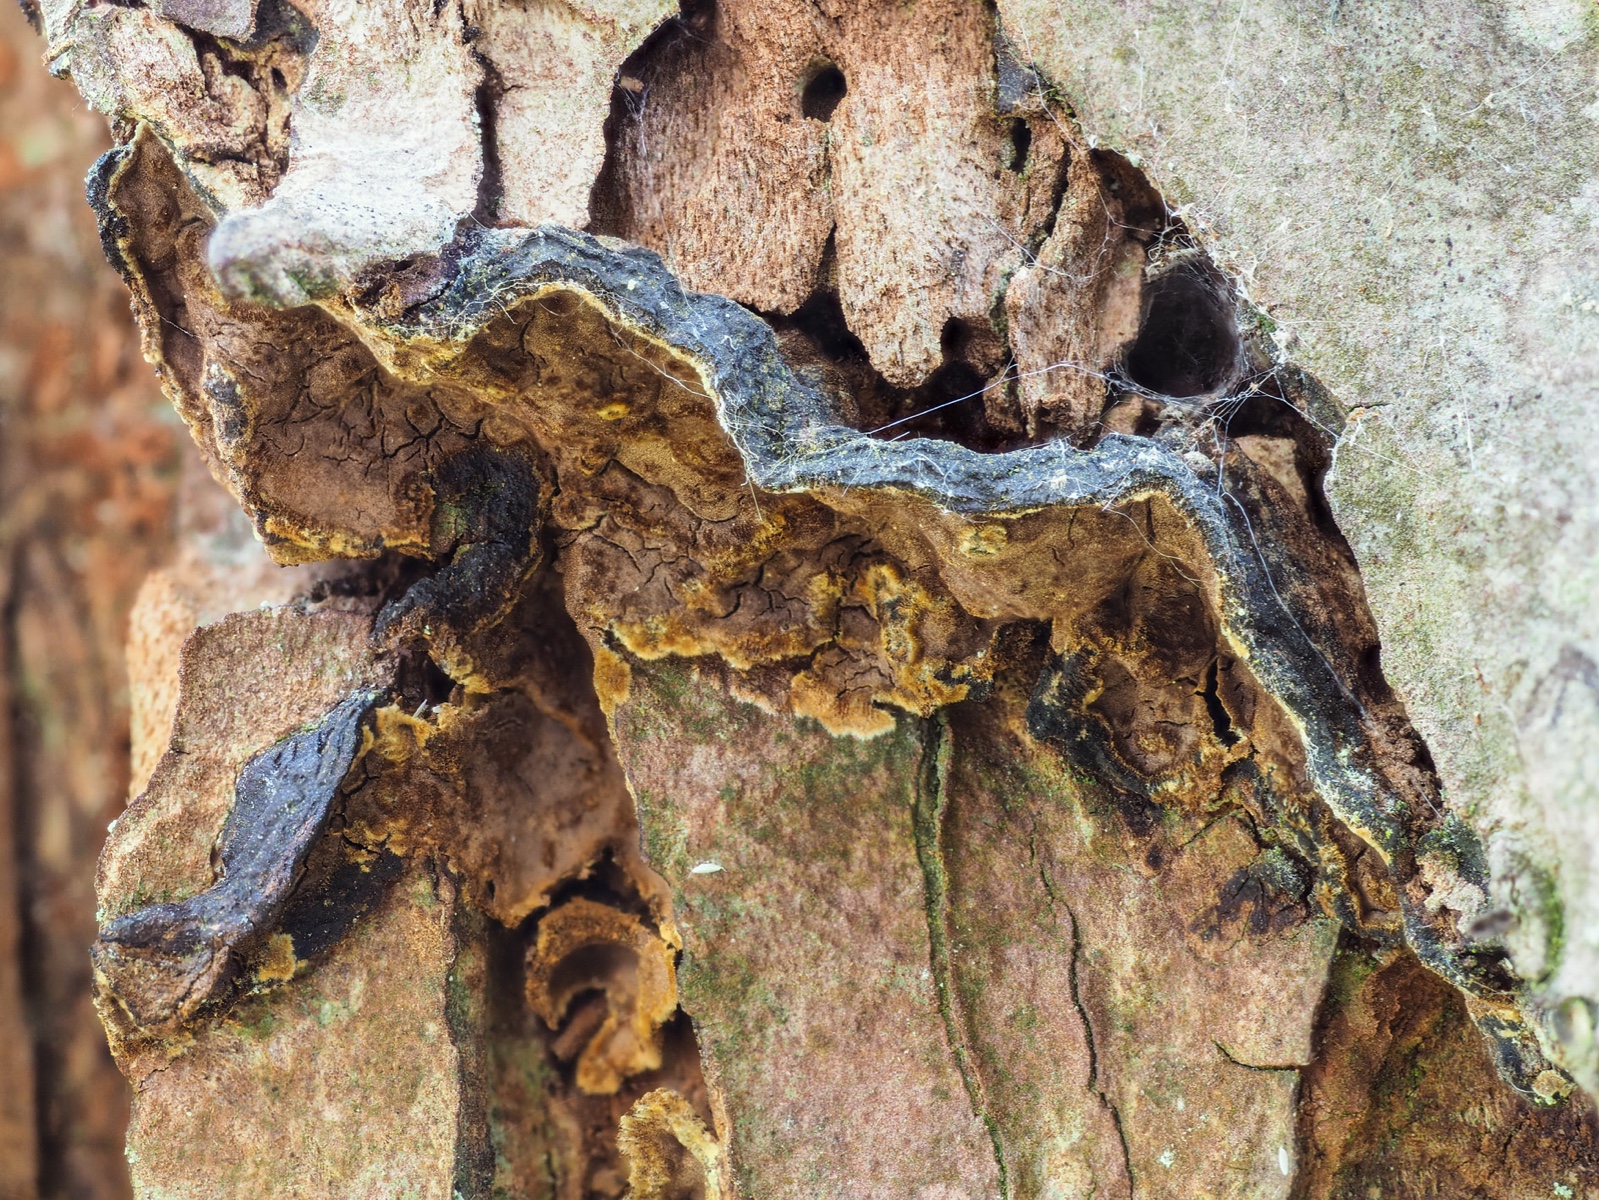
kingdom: Fungi
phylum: Basidiomycota
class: Agaricomycetes
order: Hymenochaetales
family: Hymenochaetaceae
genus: Hymenochaete
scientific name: Hymenochaete ulmicola
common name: elme-ruslædersvamp
